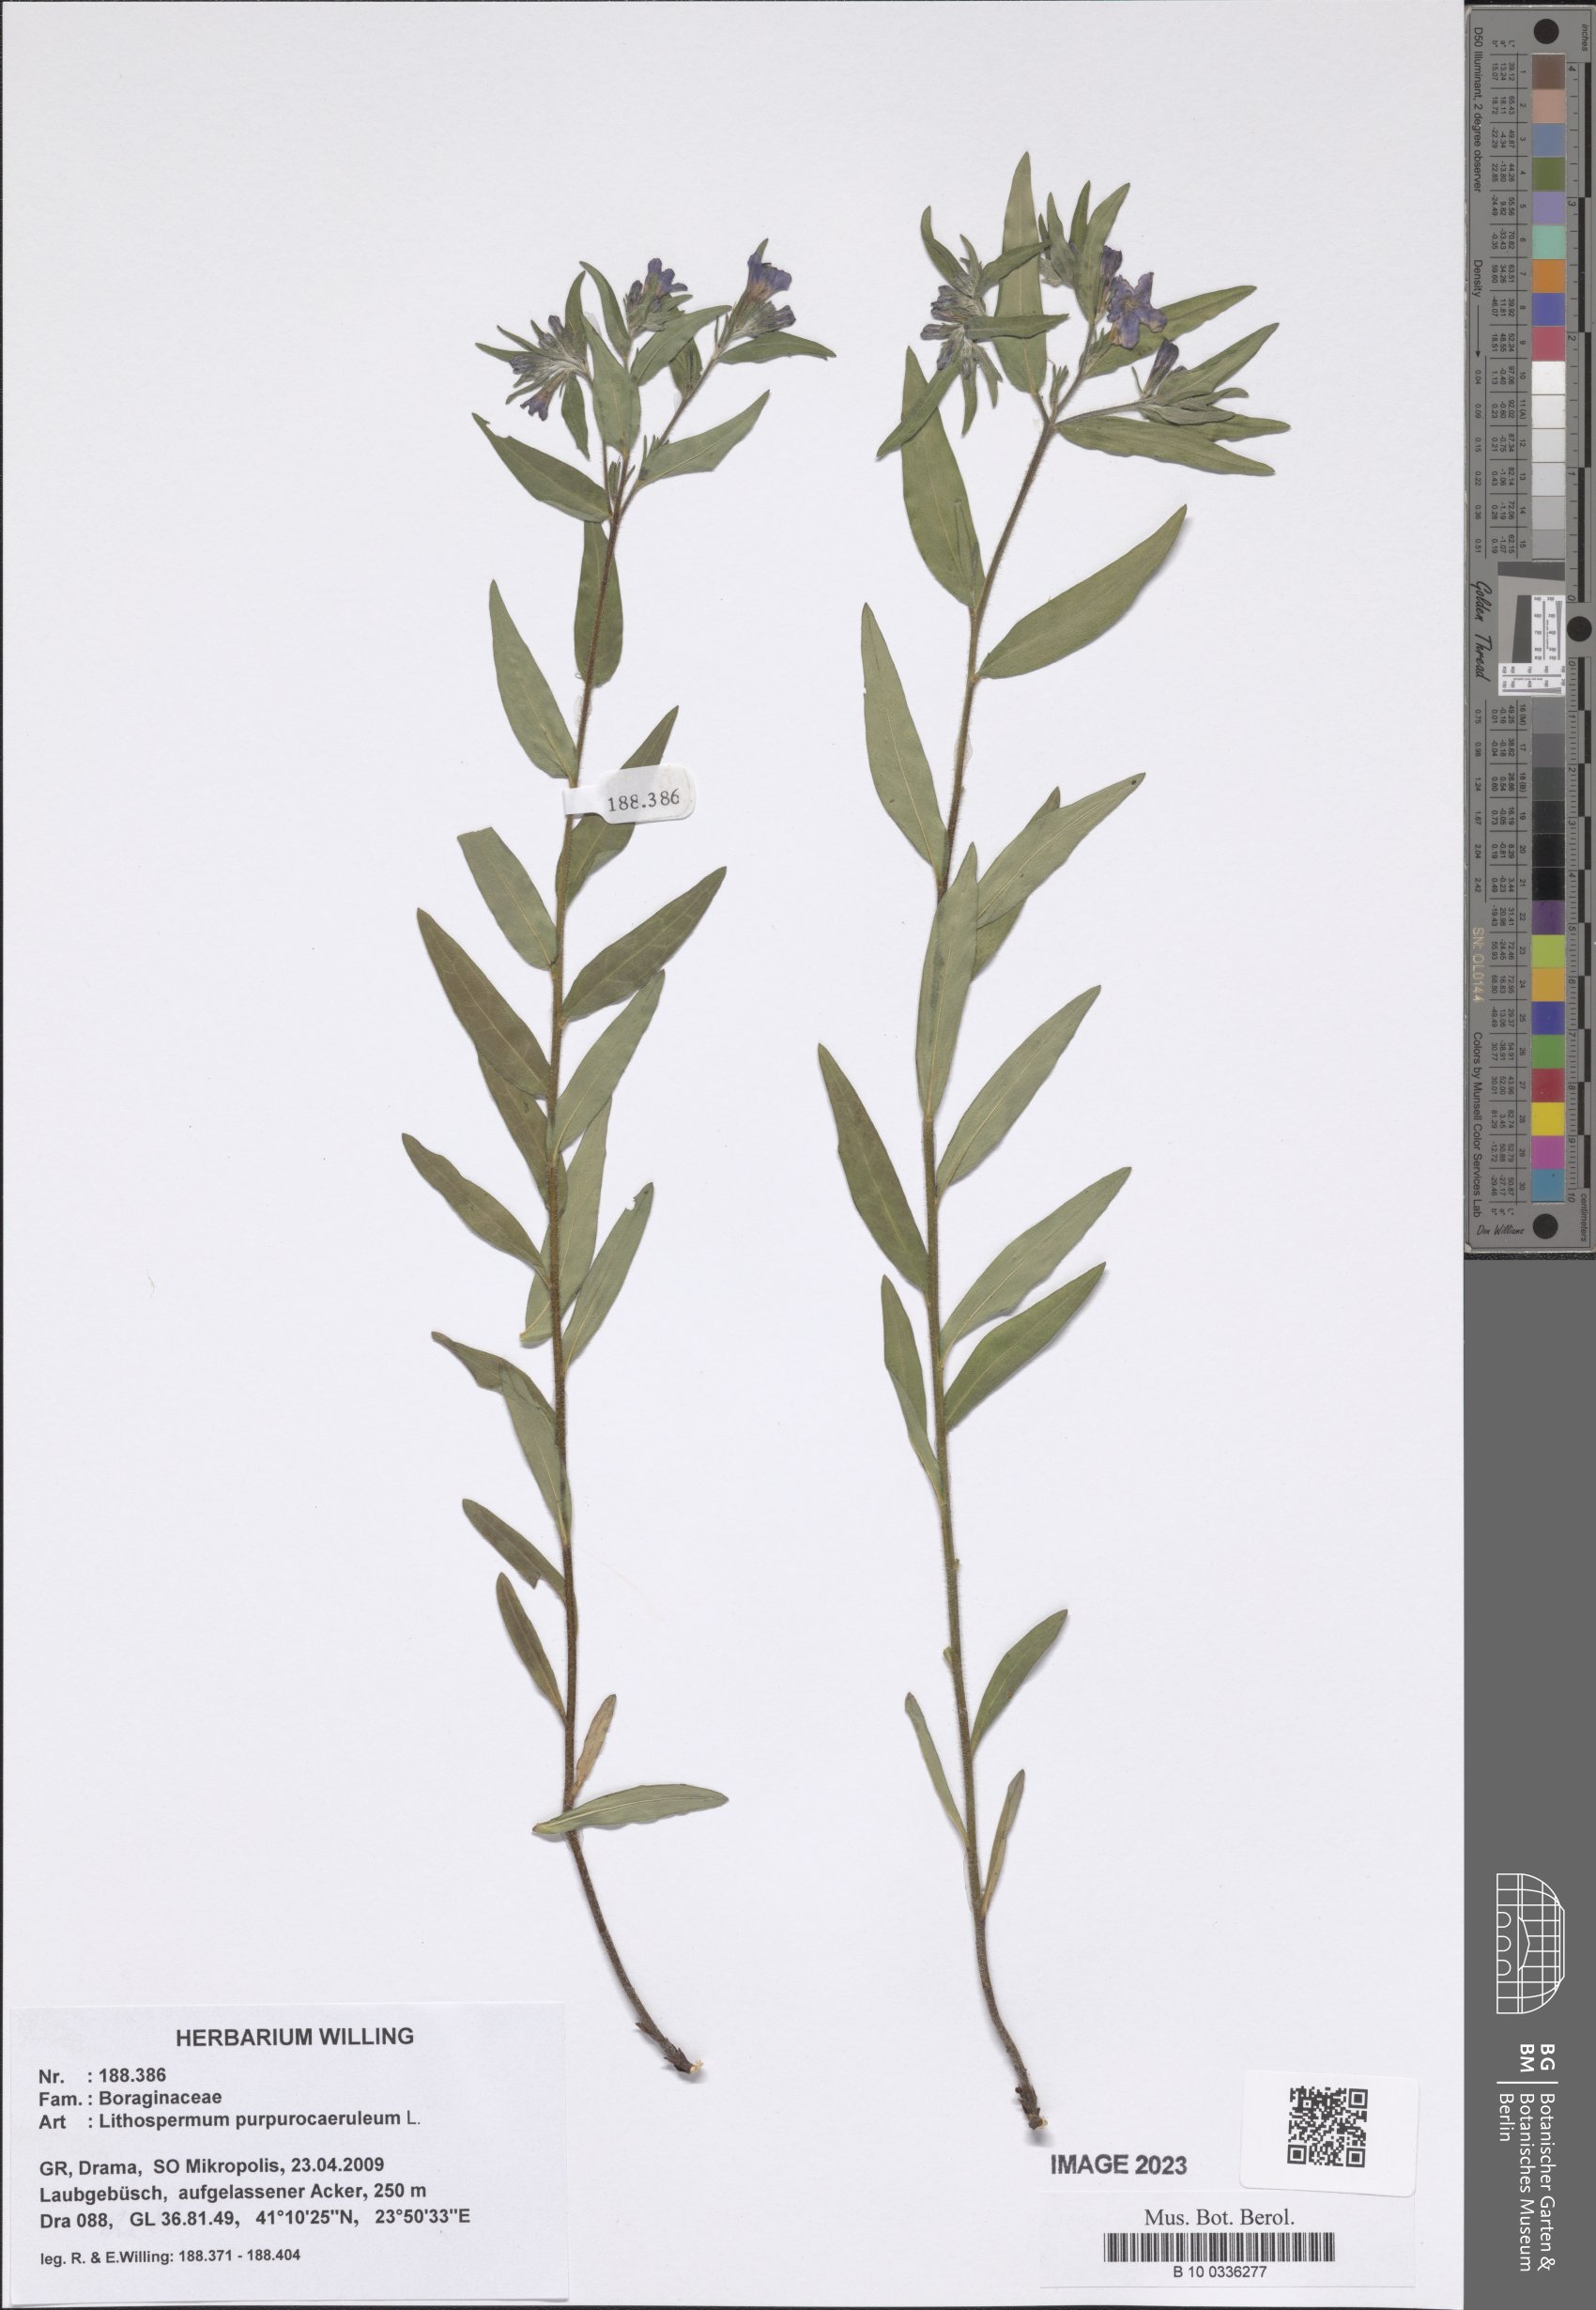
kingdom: Plantae
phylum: Tracheophyta
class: Magnoliopsida
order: Boraginales
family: Boraginaceae
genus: Aegonychon
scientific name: Aegonychon purpurocaeruleum
